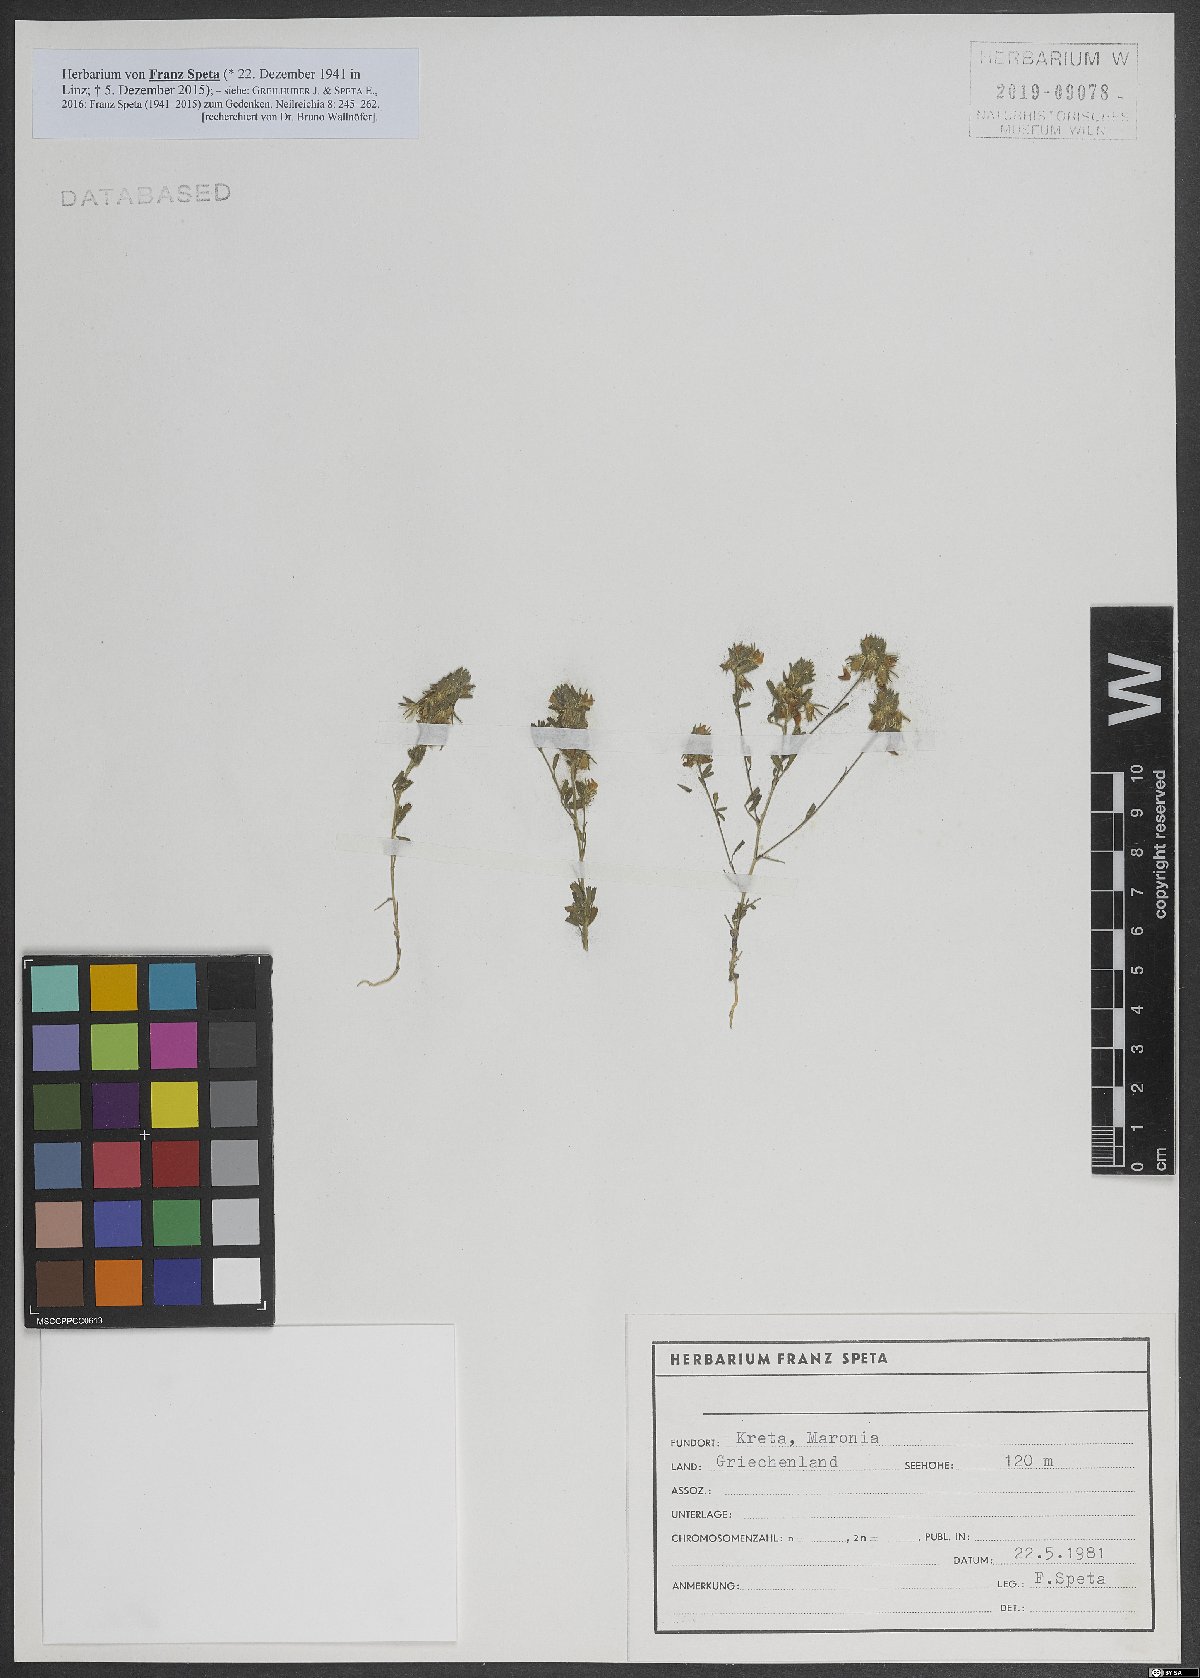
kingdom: Plantae
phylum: Tracheophyta
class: Magnoliopsida
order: Fabales
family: Fabaceae
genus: Ononis
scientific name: Ononis
